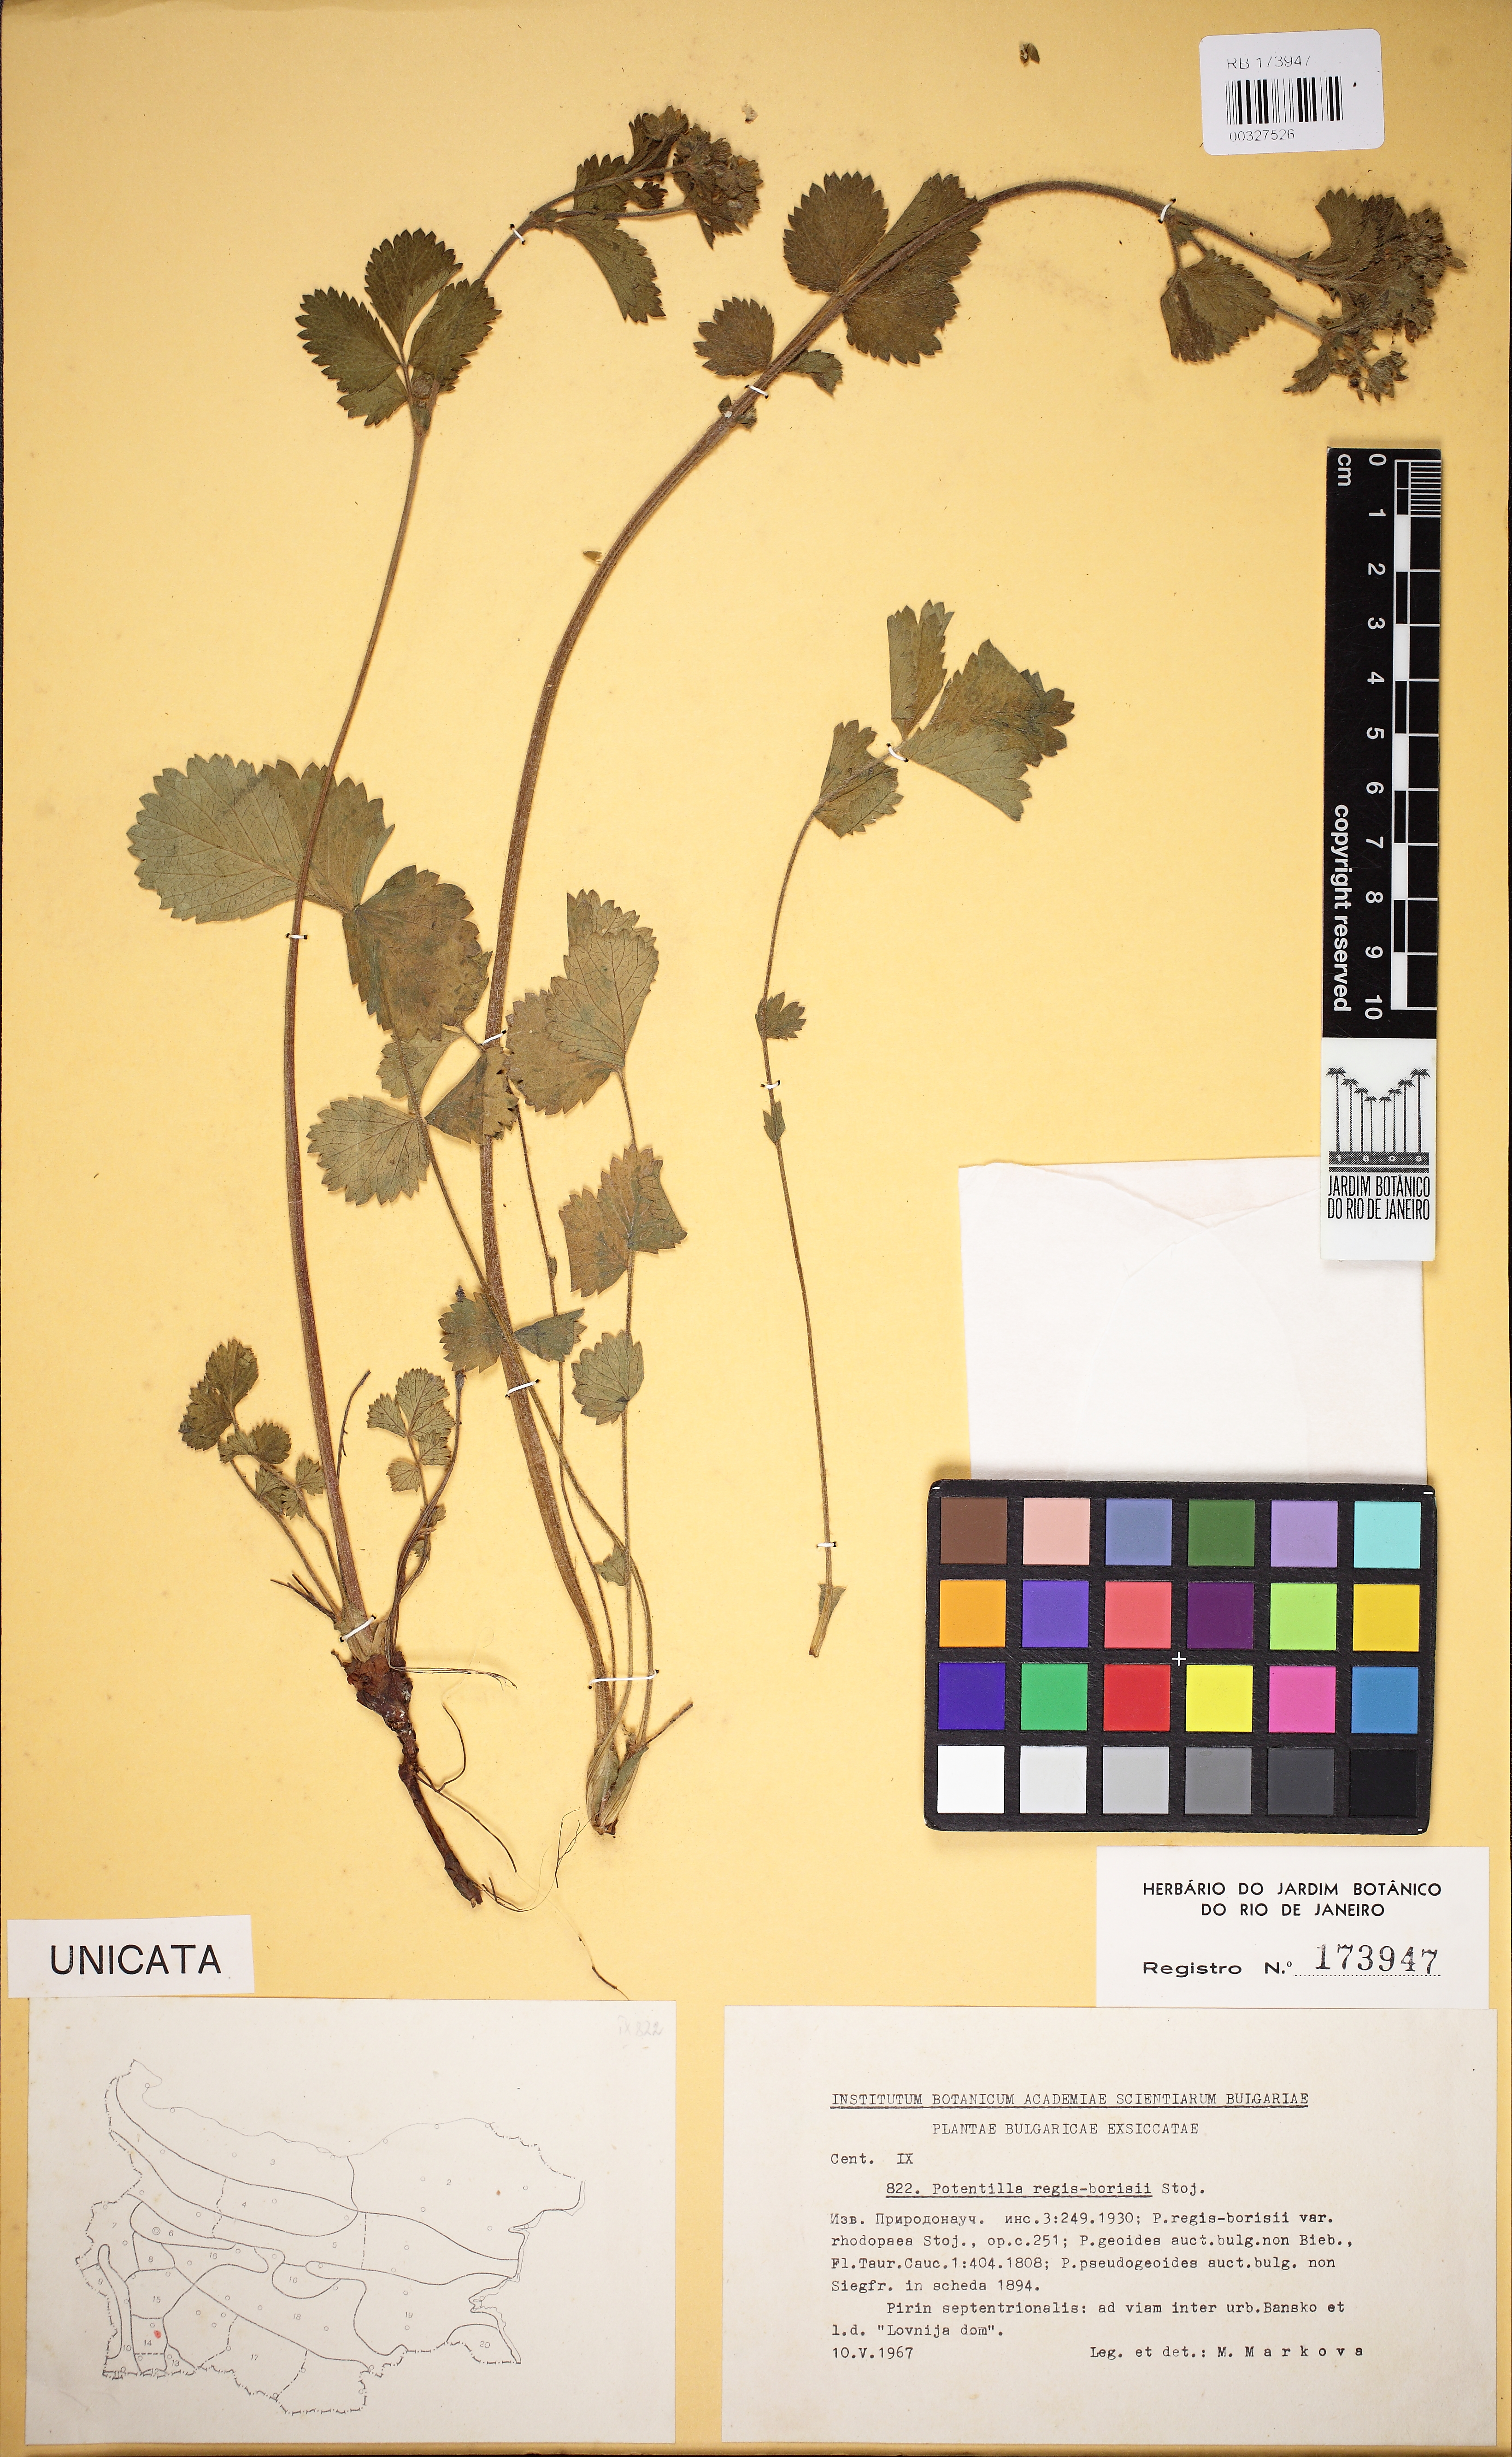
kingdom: Plantae
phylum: Tracheophyta
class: Magnoliopsida
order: Rosales
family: Rosaceae
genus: Drymocallis
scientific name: Drymocallis regisborisii
